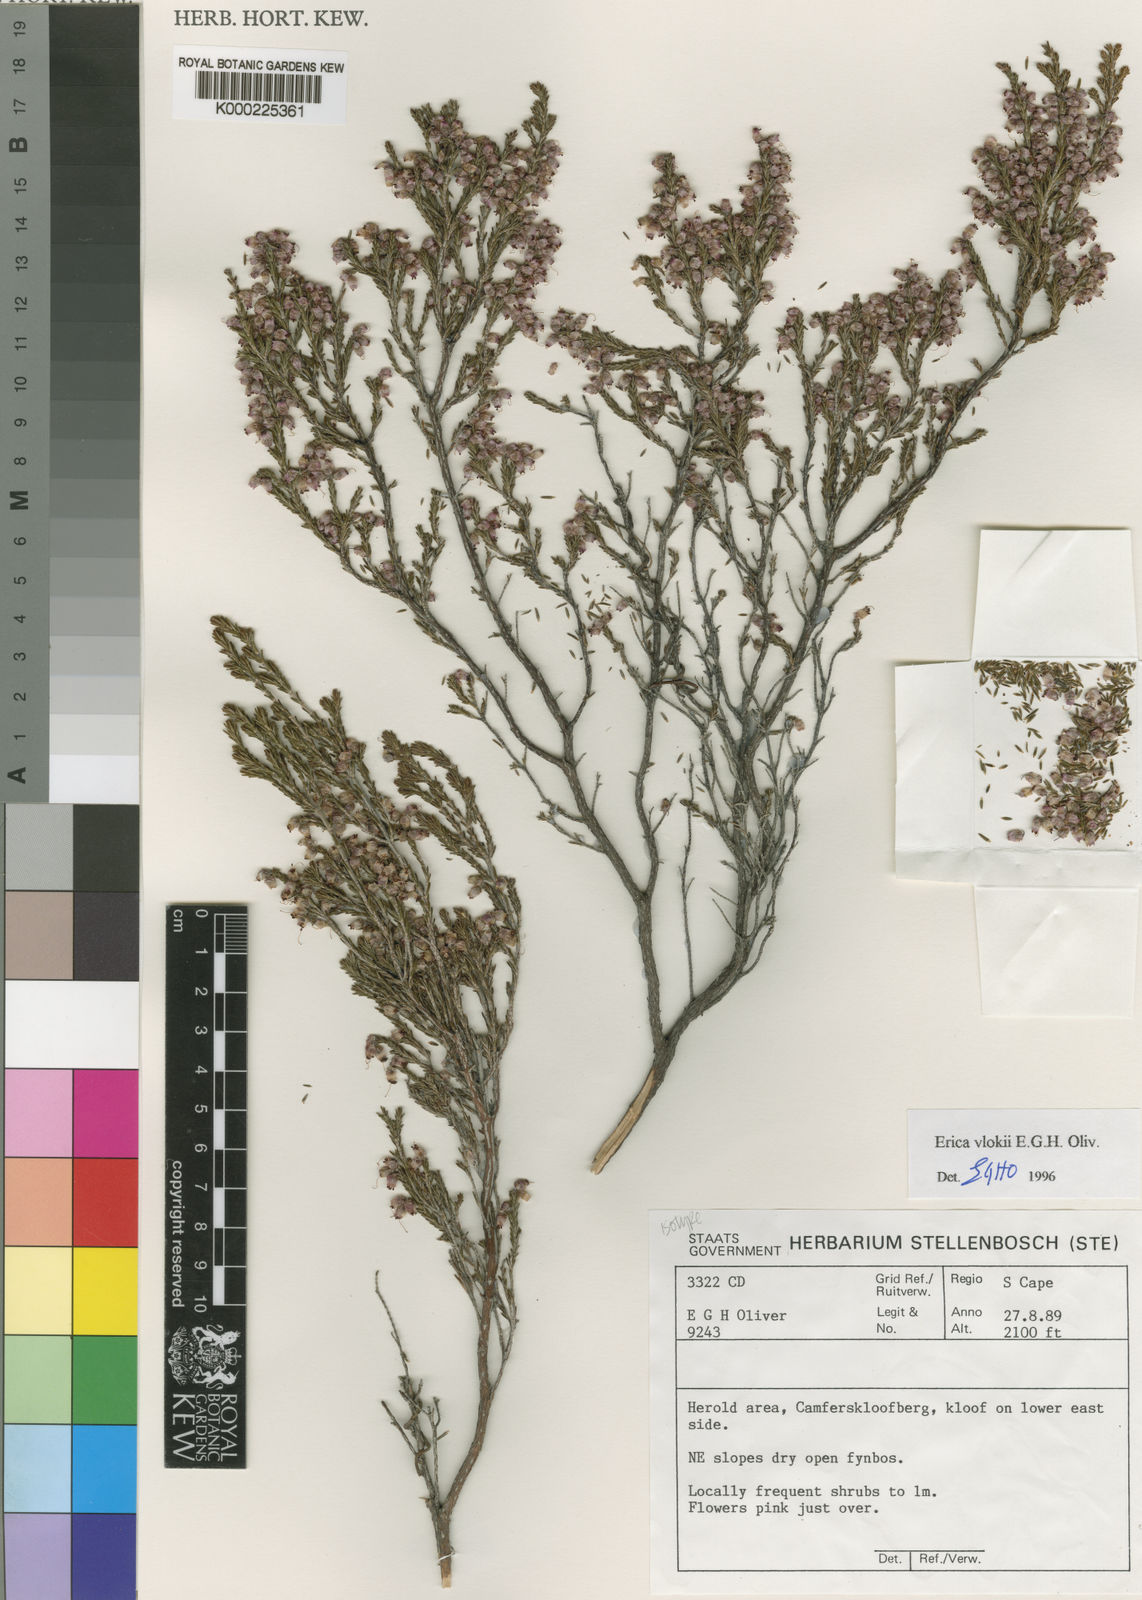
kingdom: Plantae
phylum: Tracheophyta
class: Magnoliopsida
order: Ericales
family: Ericaceae
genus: Erica
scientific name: Erica vlokii
